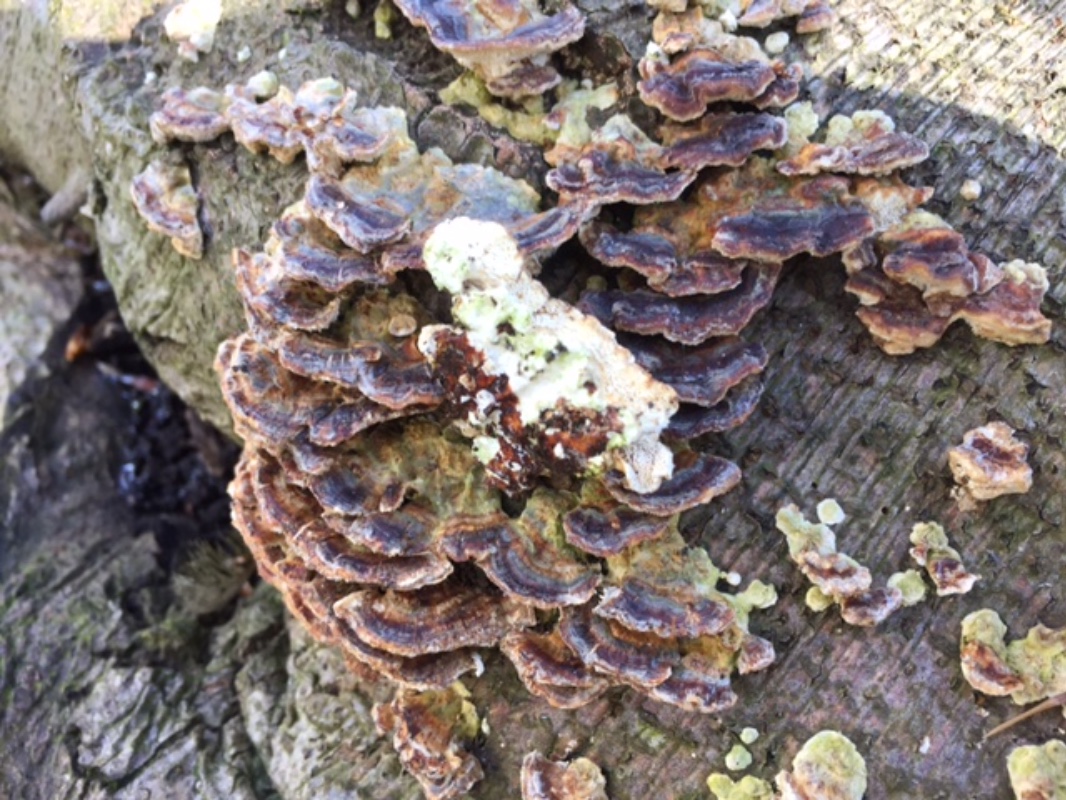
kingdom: Fungi
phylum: Basidiomycota
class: Agaricomycetes
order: Polyporales
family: Polyporaceae
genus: Trametes
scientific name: Trametes versicolor
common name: broget læderporesvamp
